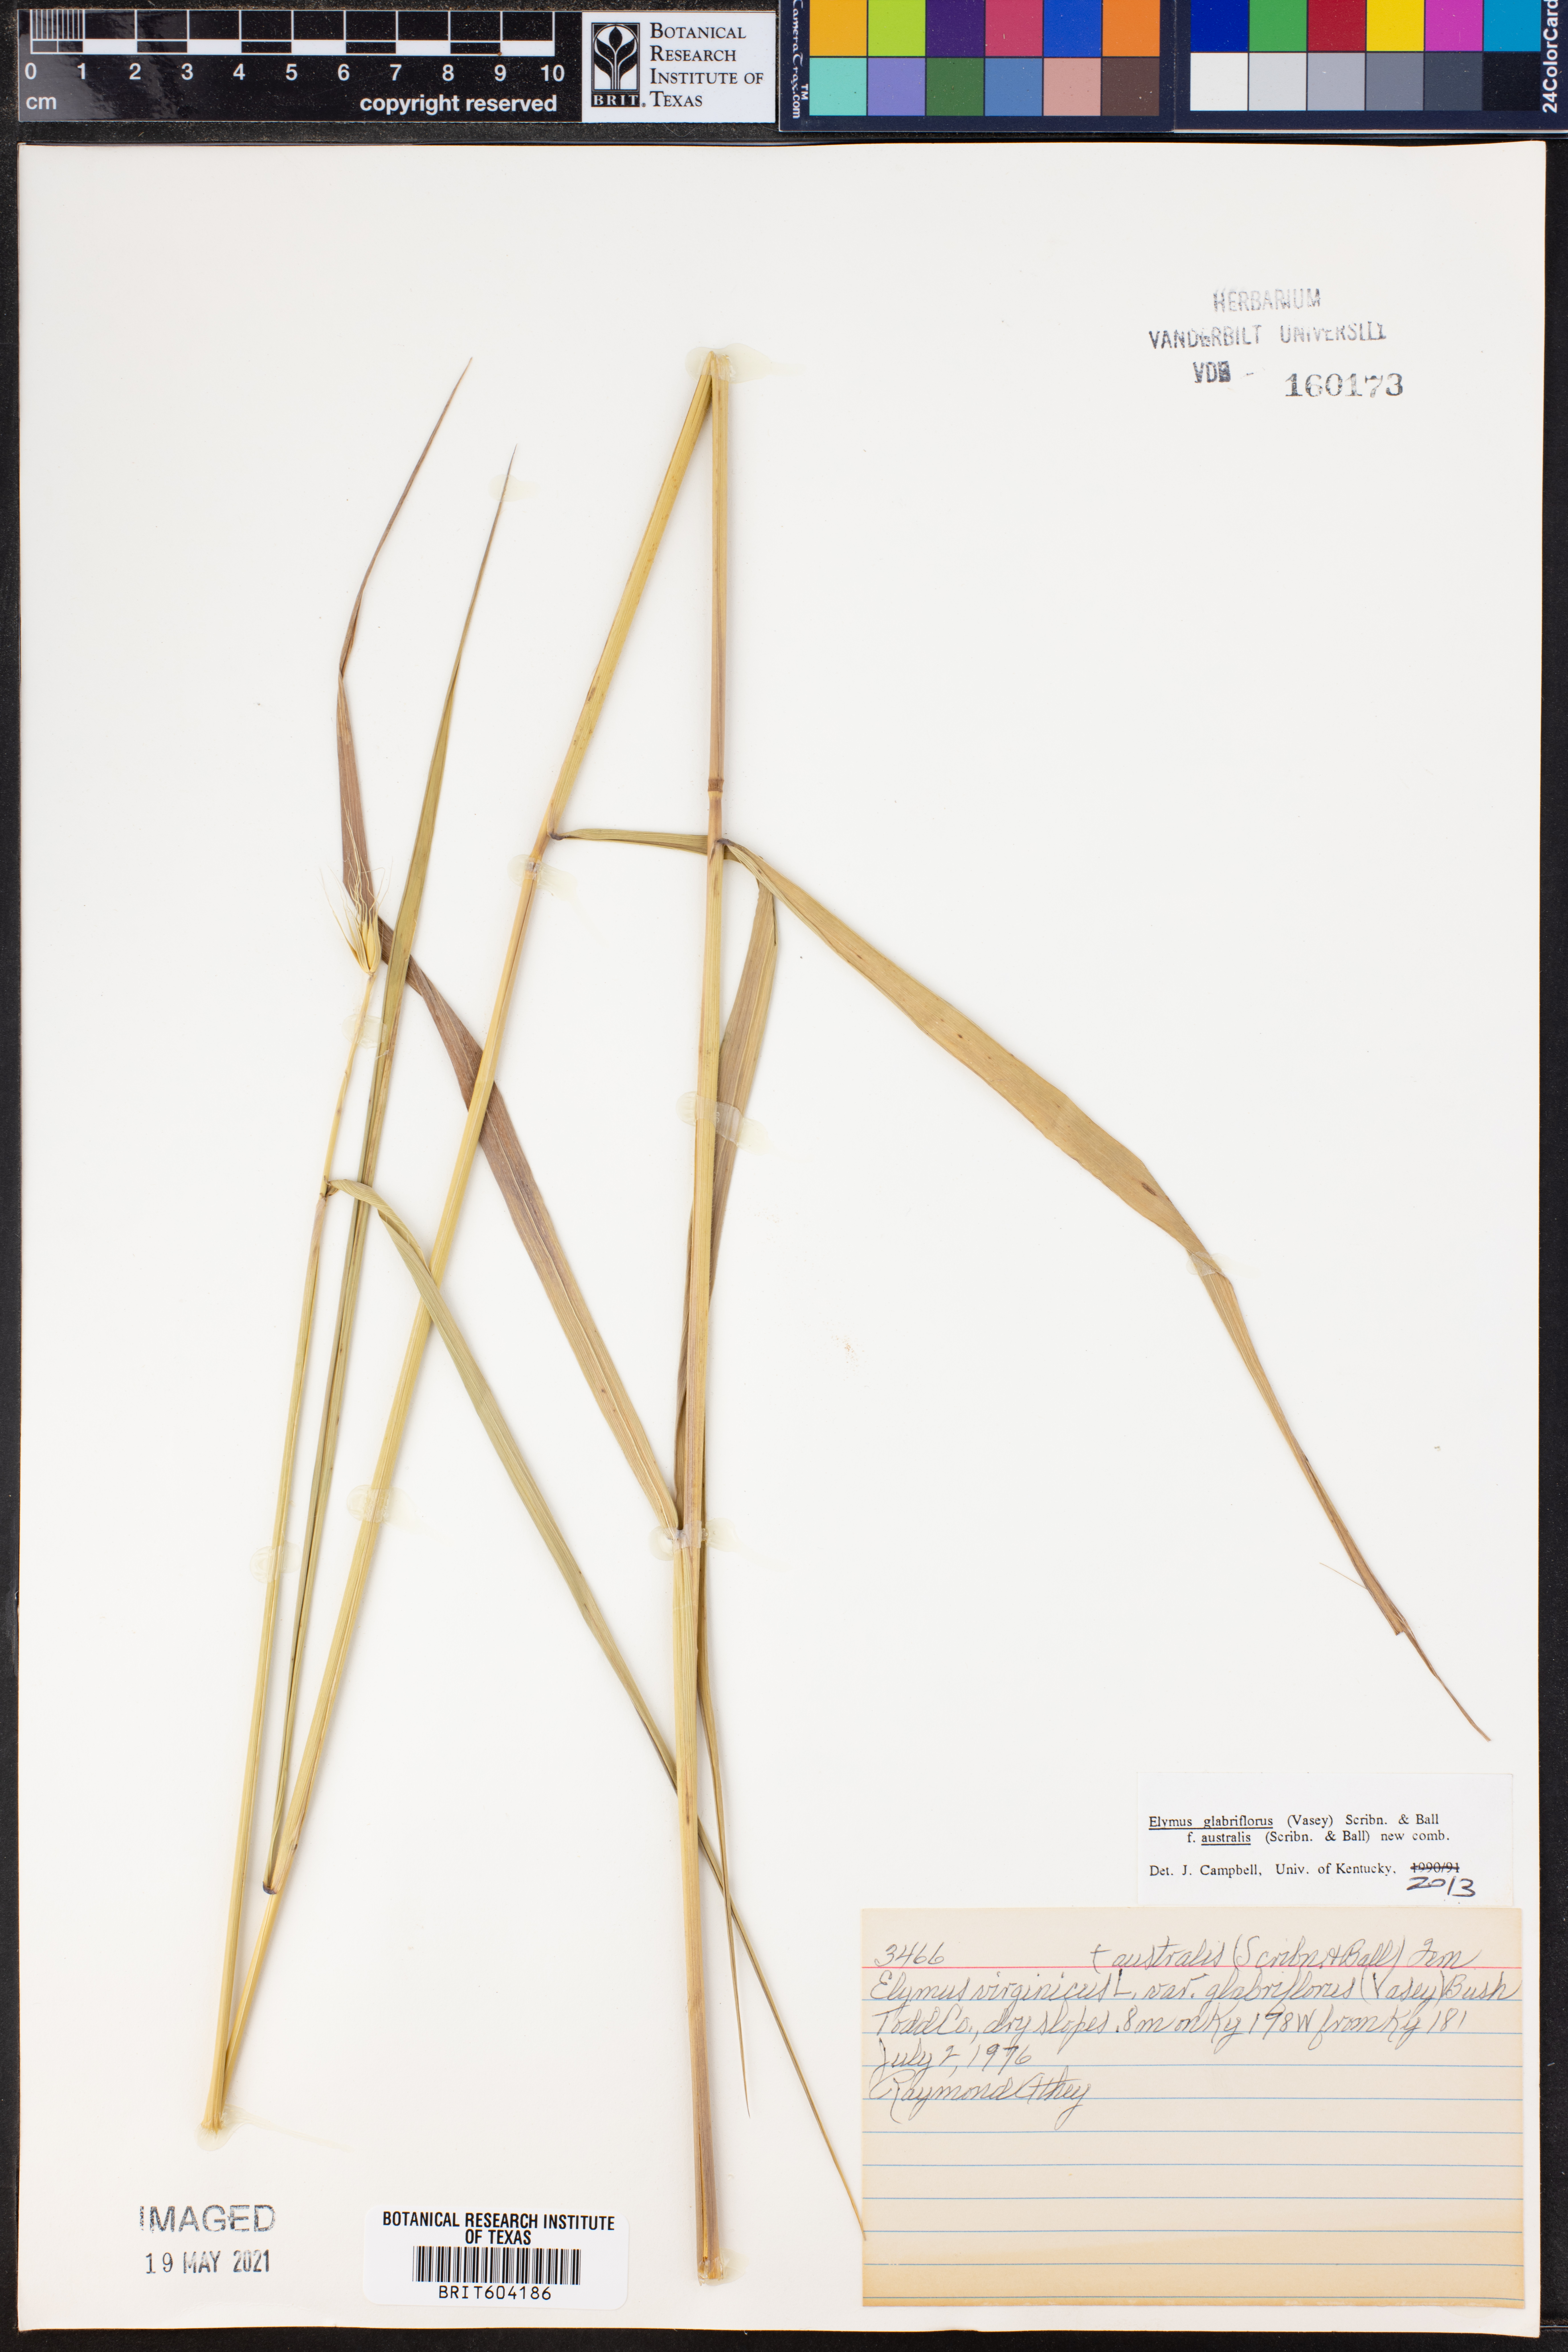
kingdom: Plantae
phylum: Tracheophyta
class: Liliopsida
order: Poales
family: Poaceae
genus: Elymus
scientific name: Elymus virginicus
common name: Common eastern wildrye
